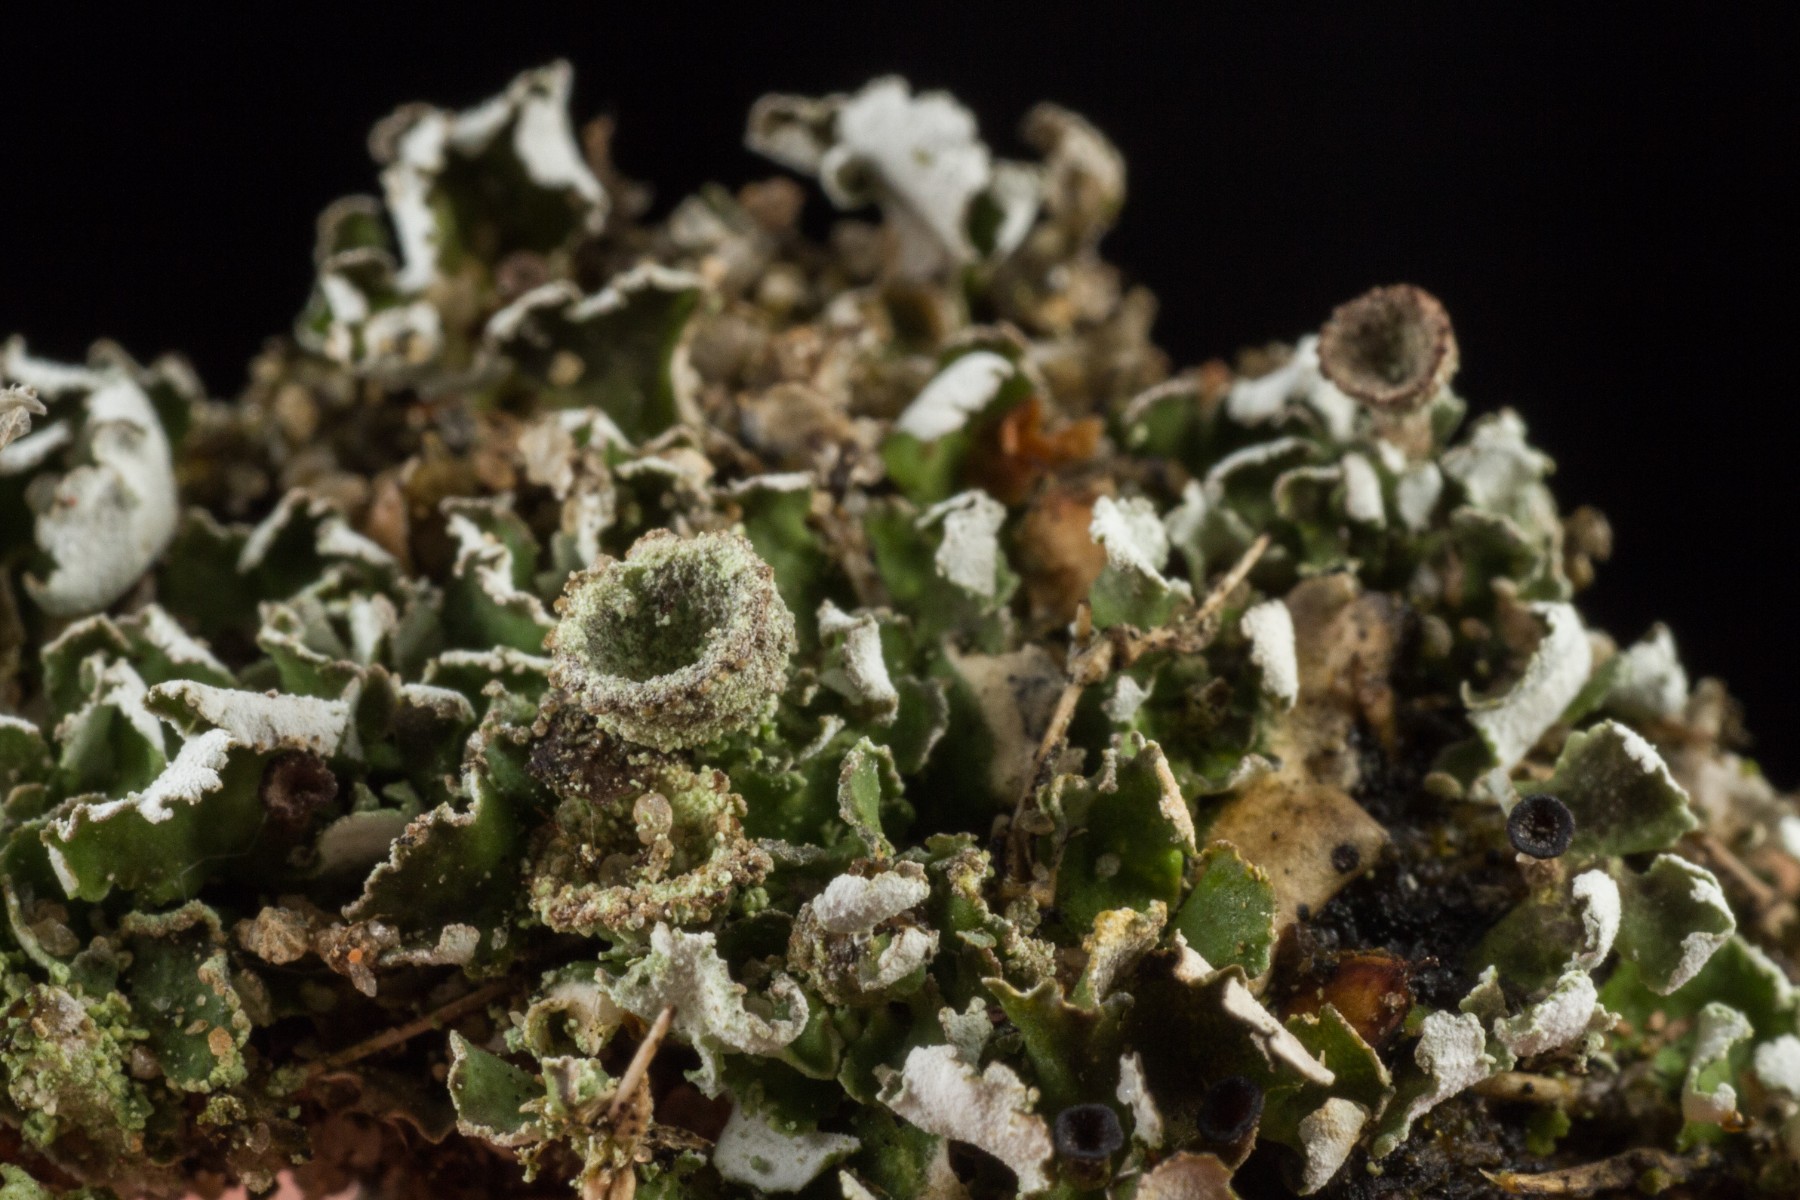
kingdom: Fungi
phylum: Ascomycota
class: Lecanoromycetes
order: Lecanorales
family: Cladoniaceae
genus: Cladonia
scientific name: Cladonia humilis
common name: lav bægerlav
